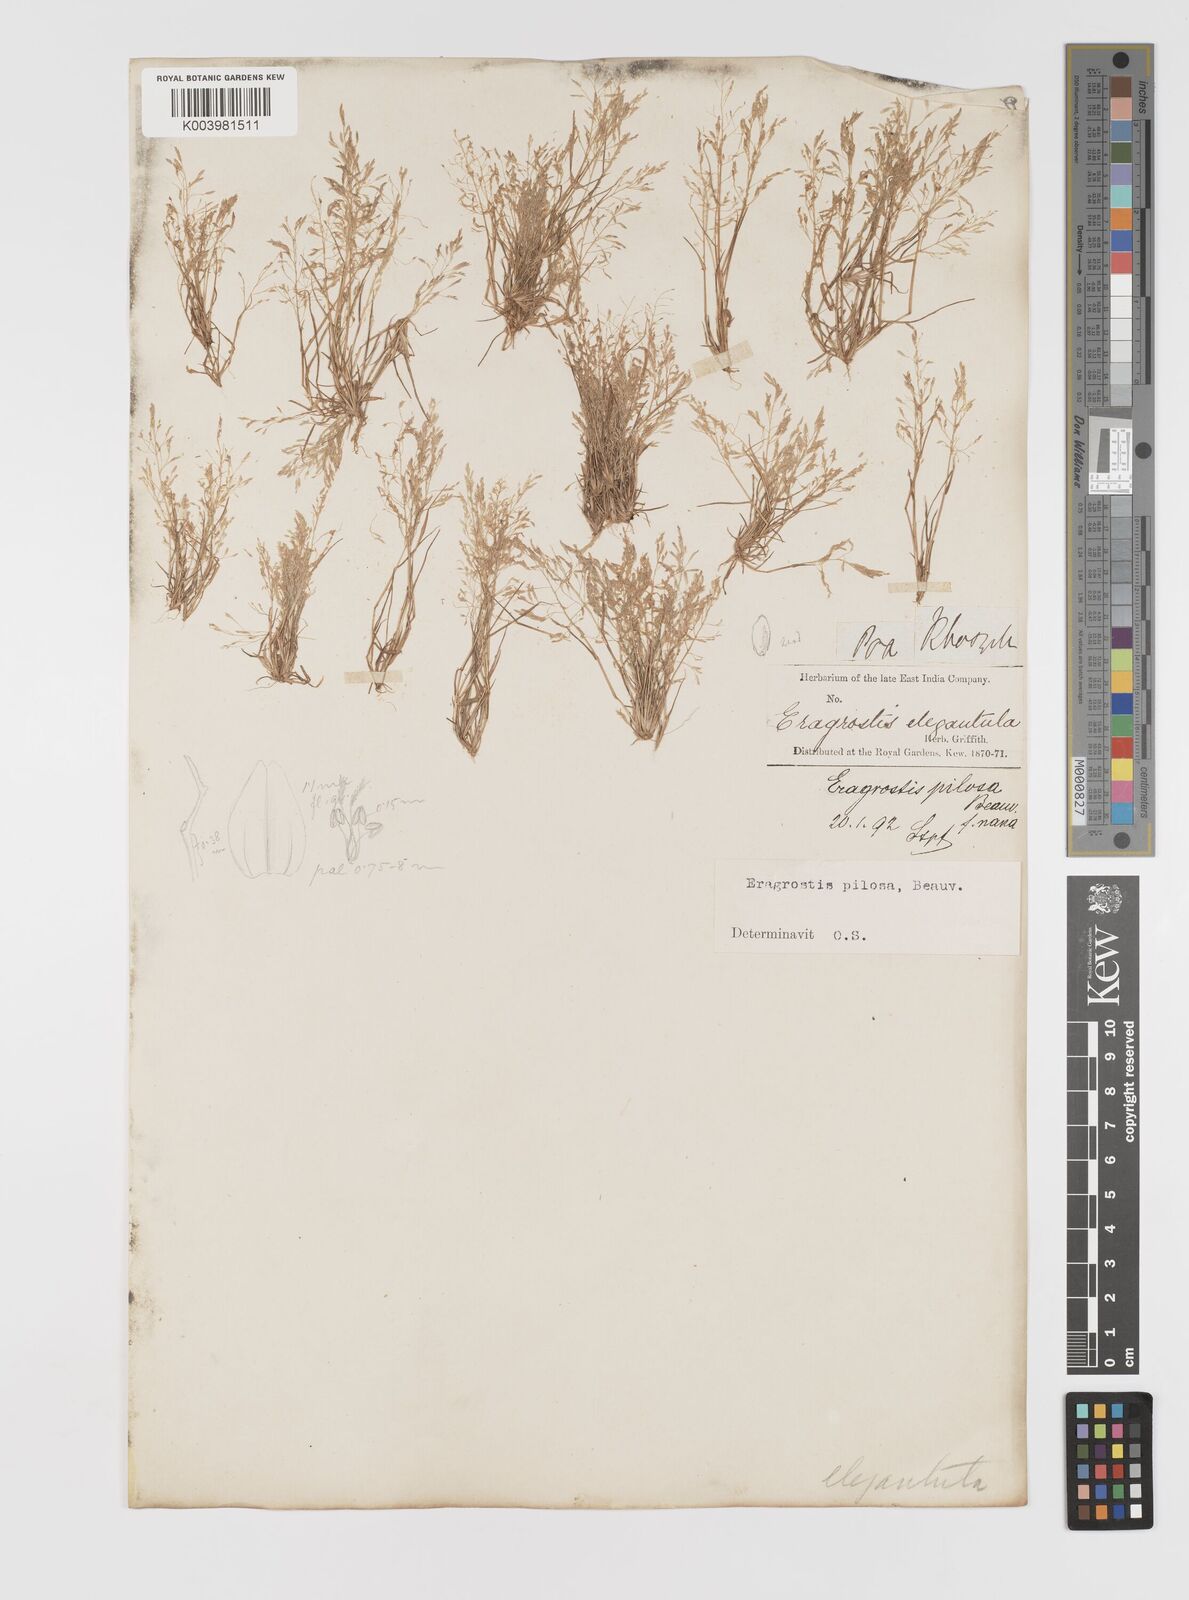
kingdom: Plantae
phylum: Tracheophyta
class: Liliopsida
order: Poales
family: Poaceae
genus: Eragrostis
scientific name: Eragrostis pilosa
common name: Indian lovegrass
